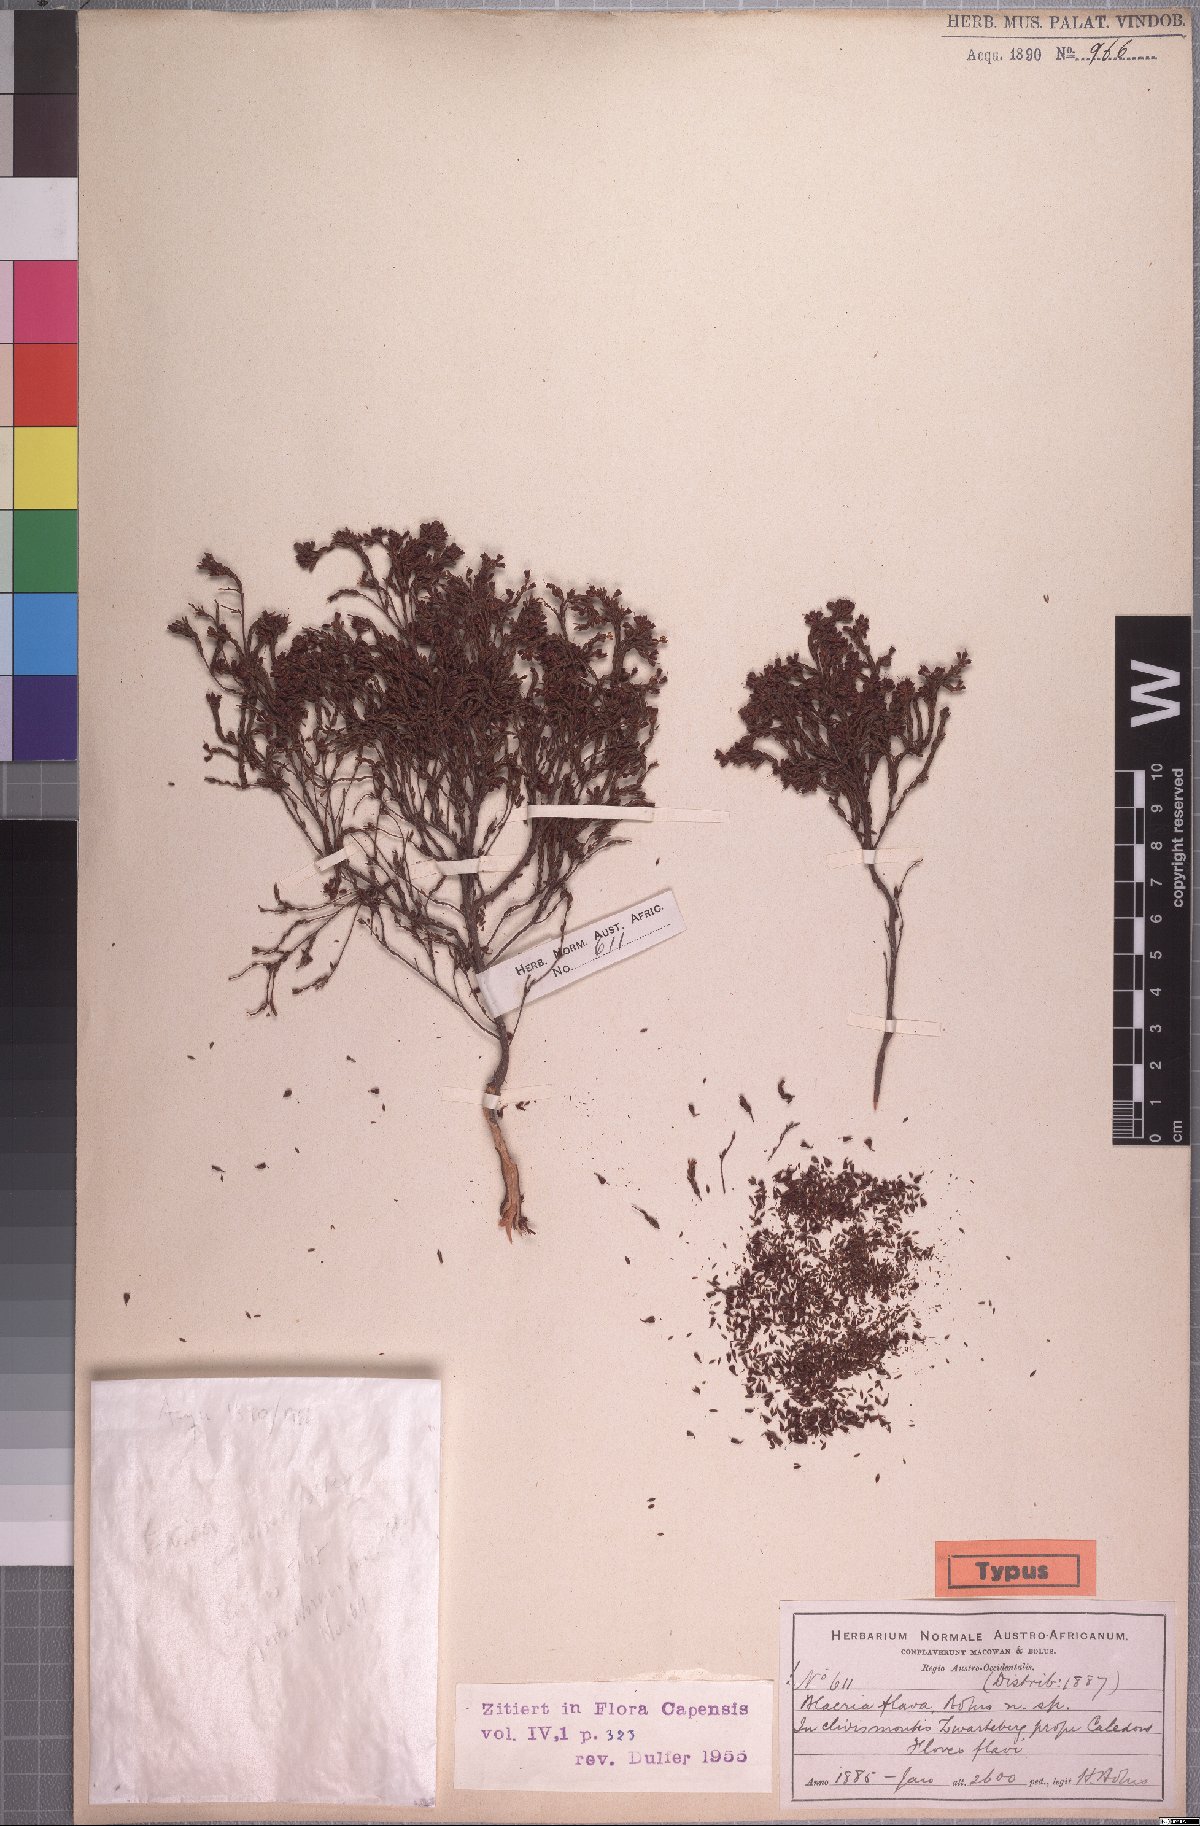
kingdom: Plantae
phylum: Tracheophyta
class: Magnoliopsida
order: Ericales
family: Ericaceae
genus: Erica
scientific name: Erica equisetifolia
